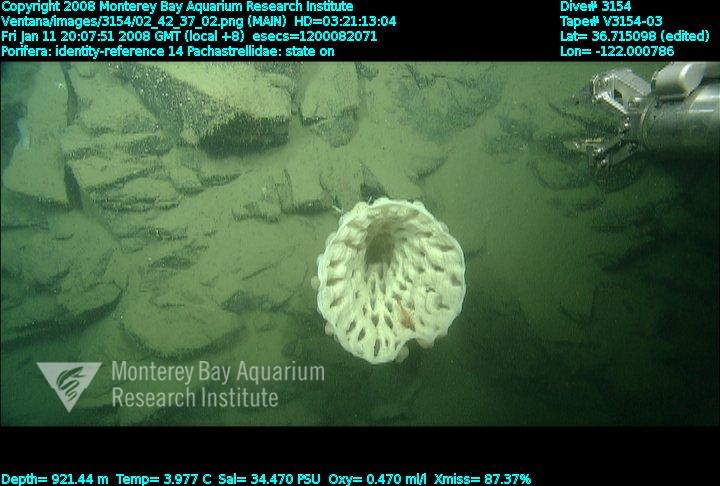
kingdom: Animalia
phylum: Porifera
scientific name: Porifera
